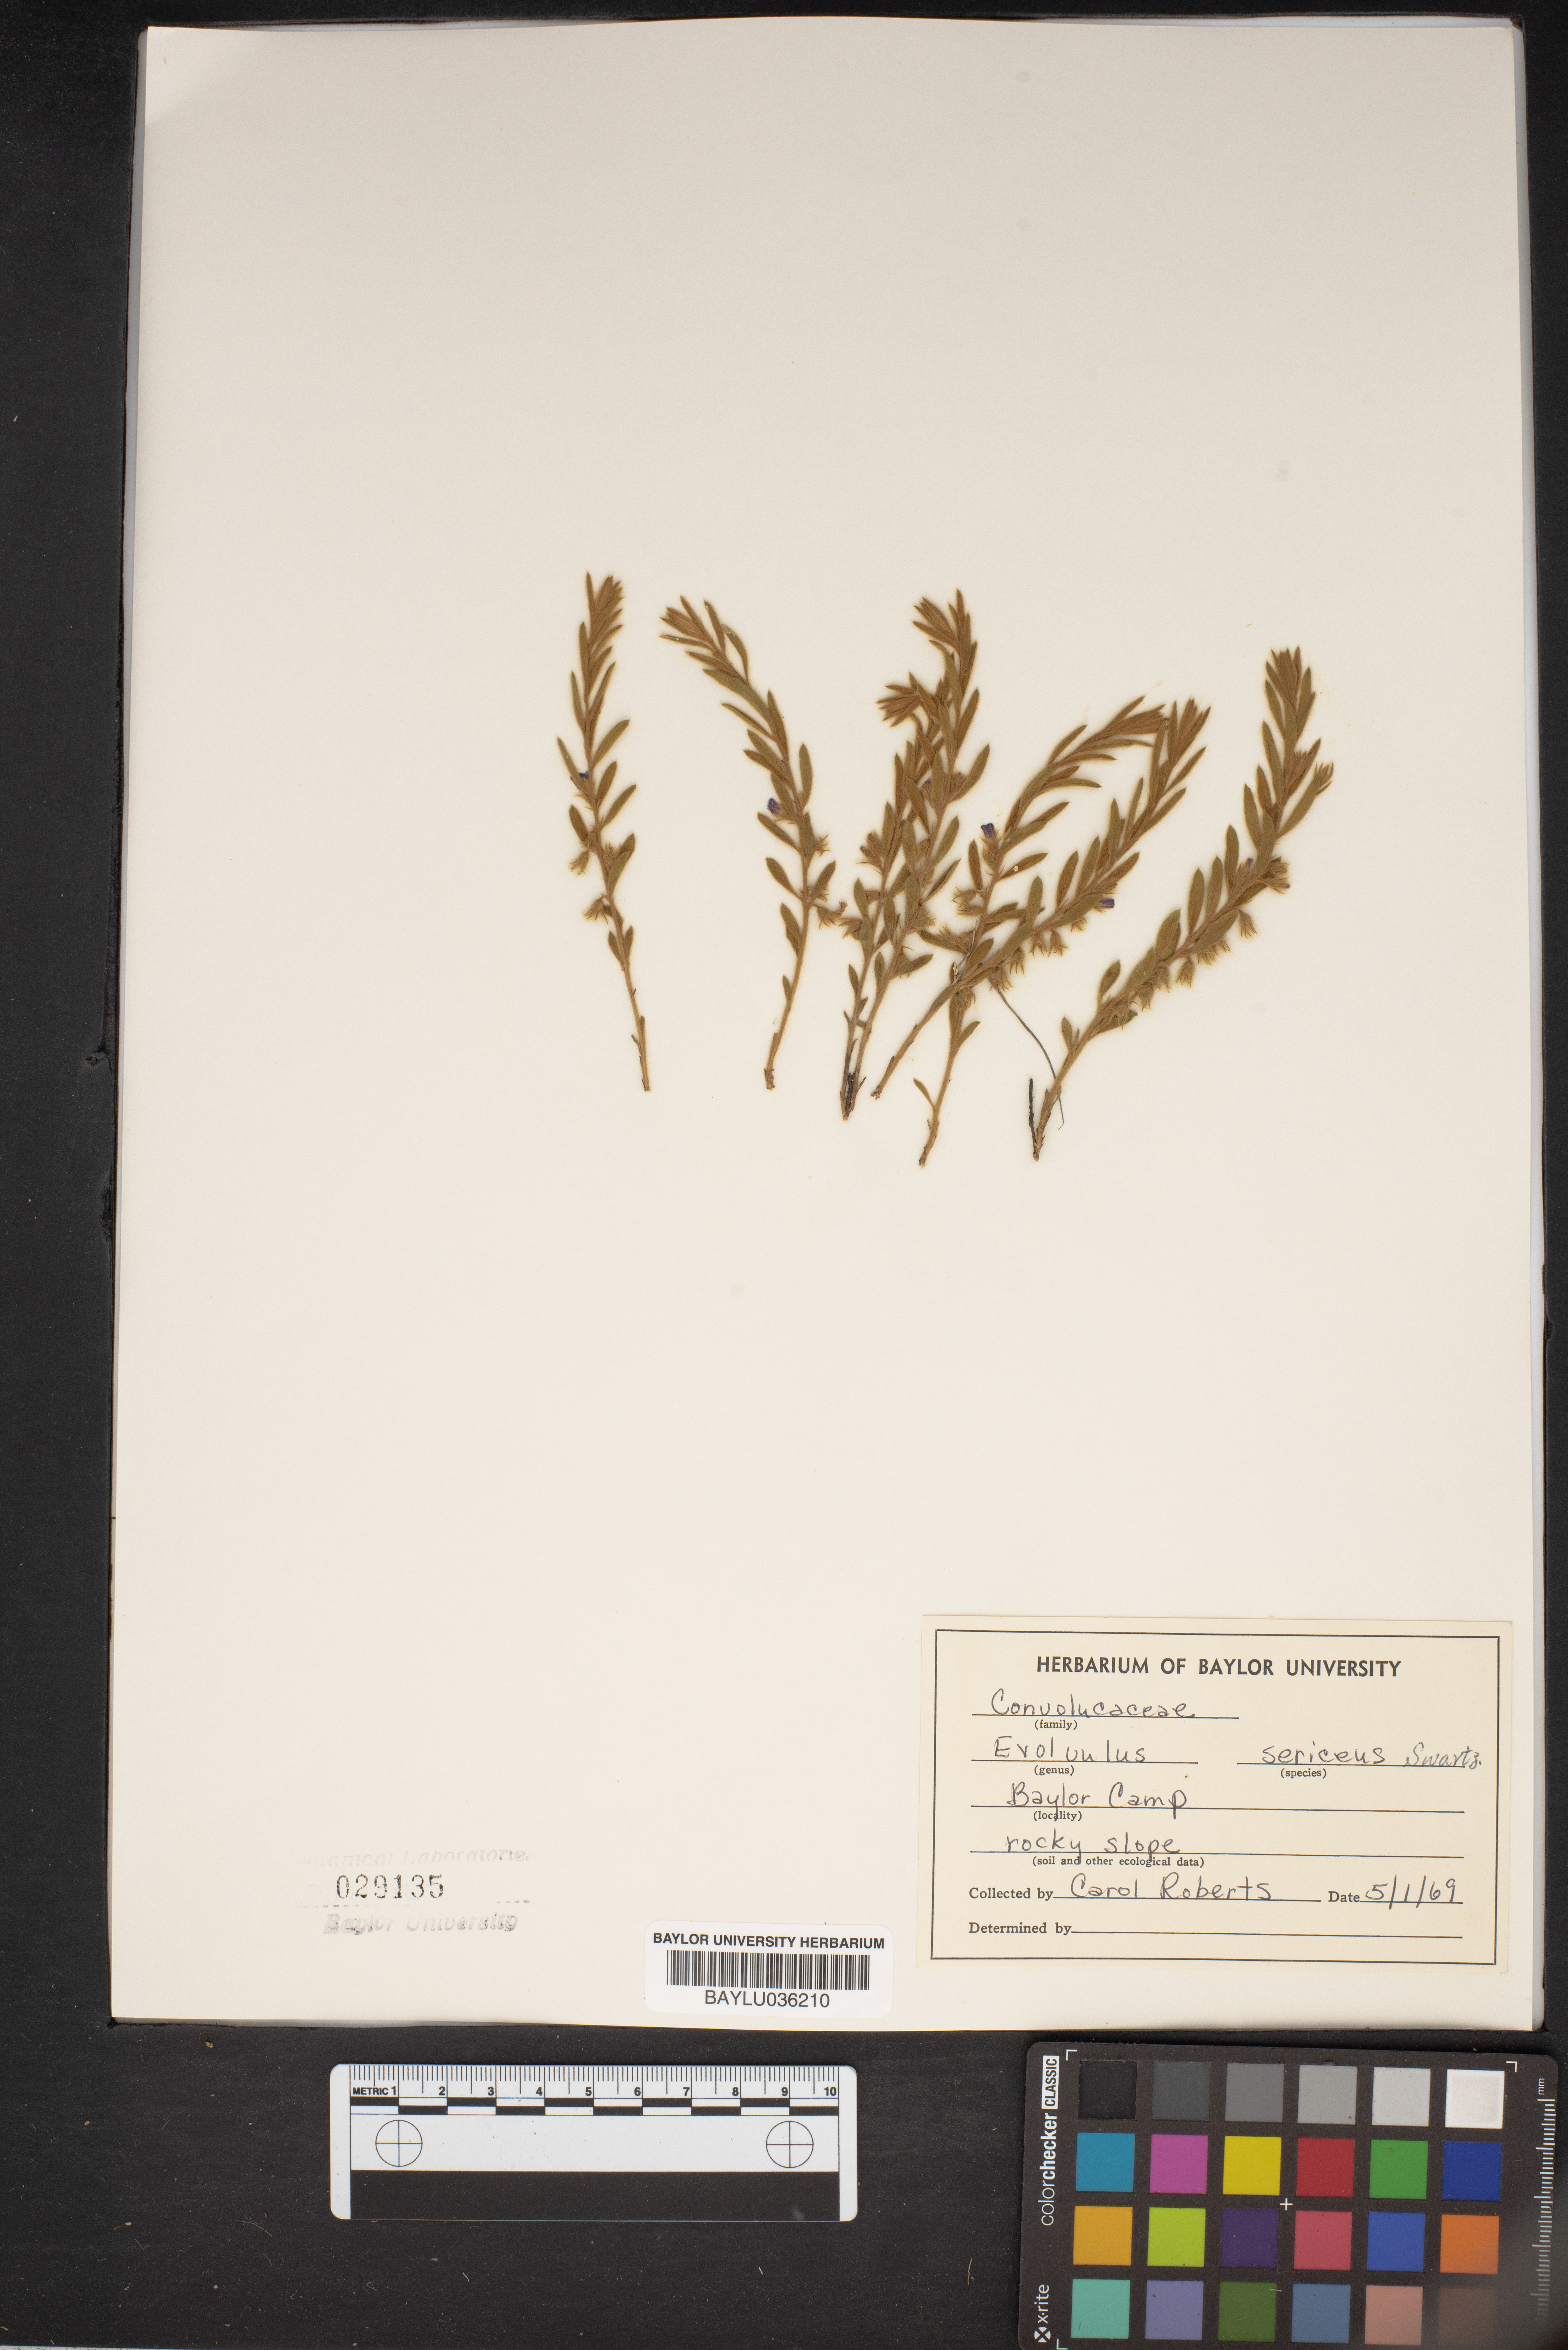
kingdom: Plantae
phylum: Tracheophyta
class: Magnoliopsida
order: Solanales
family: Convolvulaceae
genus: Evolvulus
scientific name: Evolvulus sericeus
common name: Blue dots
